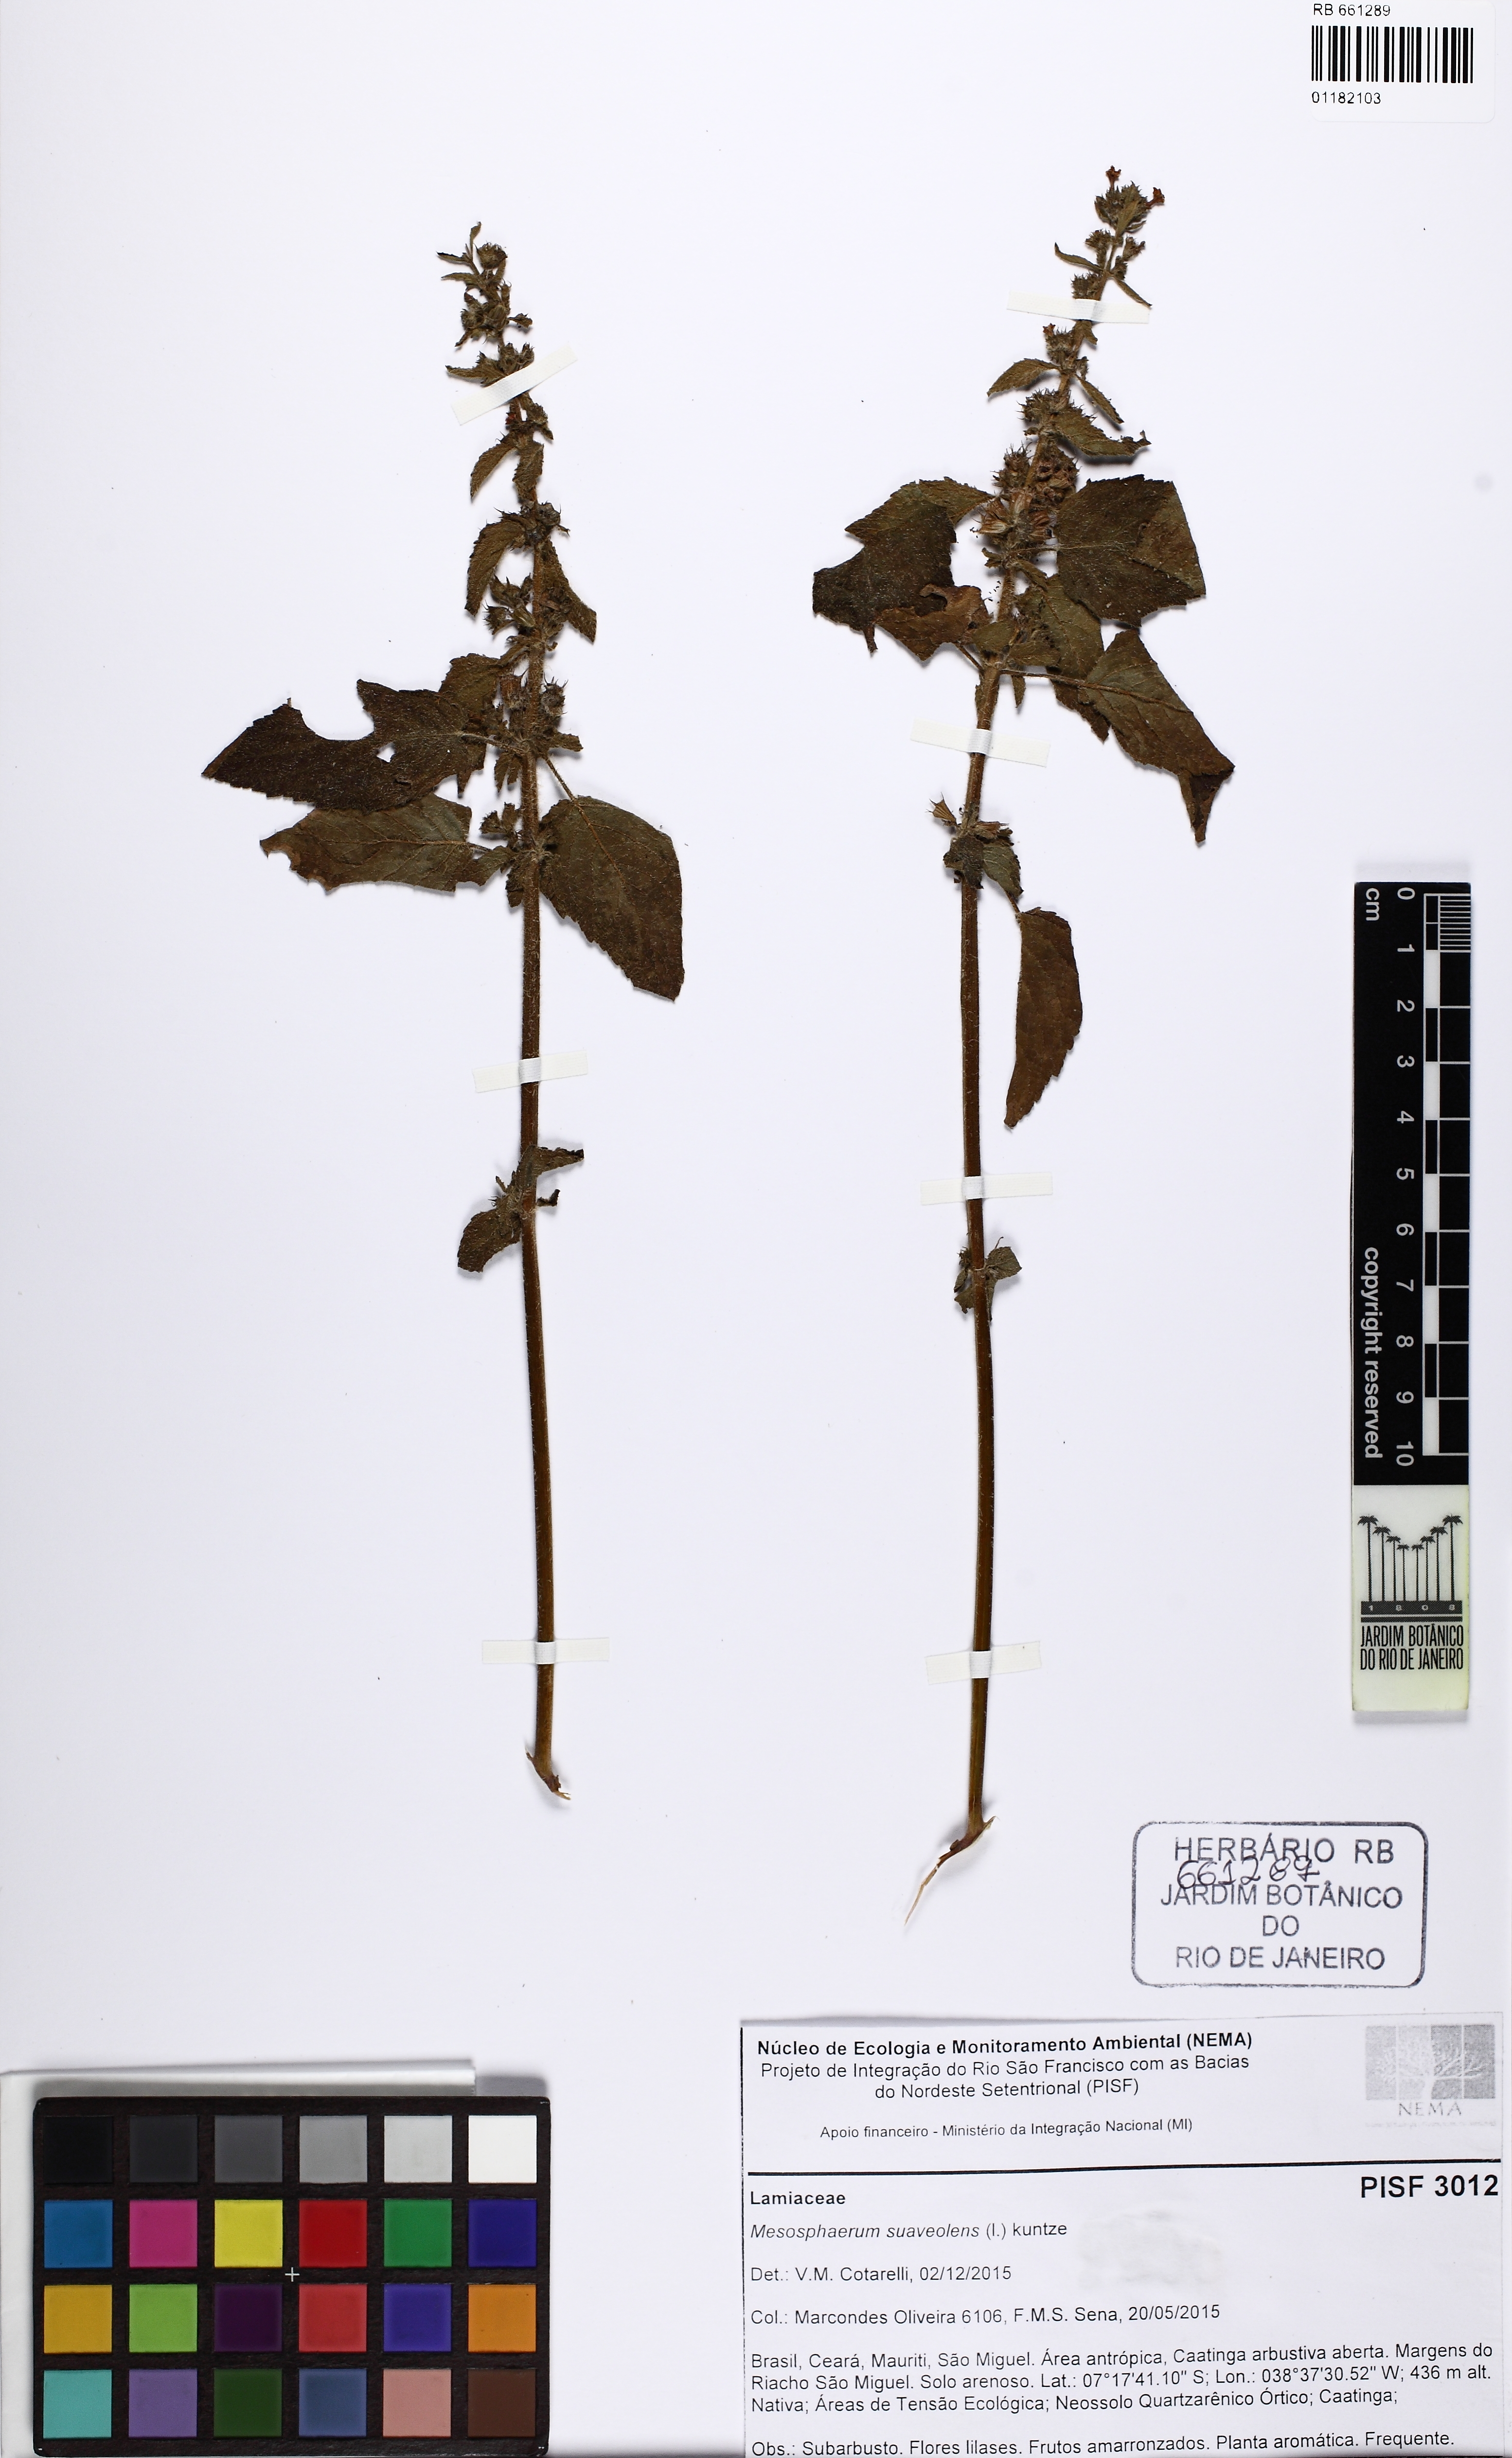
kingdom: Plantae
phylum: Tracheophyta
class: Magnoliopsida
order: Lamiales
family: Lamiaceae
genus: Mesosphaerum
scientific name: Mesosphaerum suaveolens
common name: Pignut
